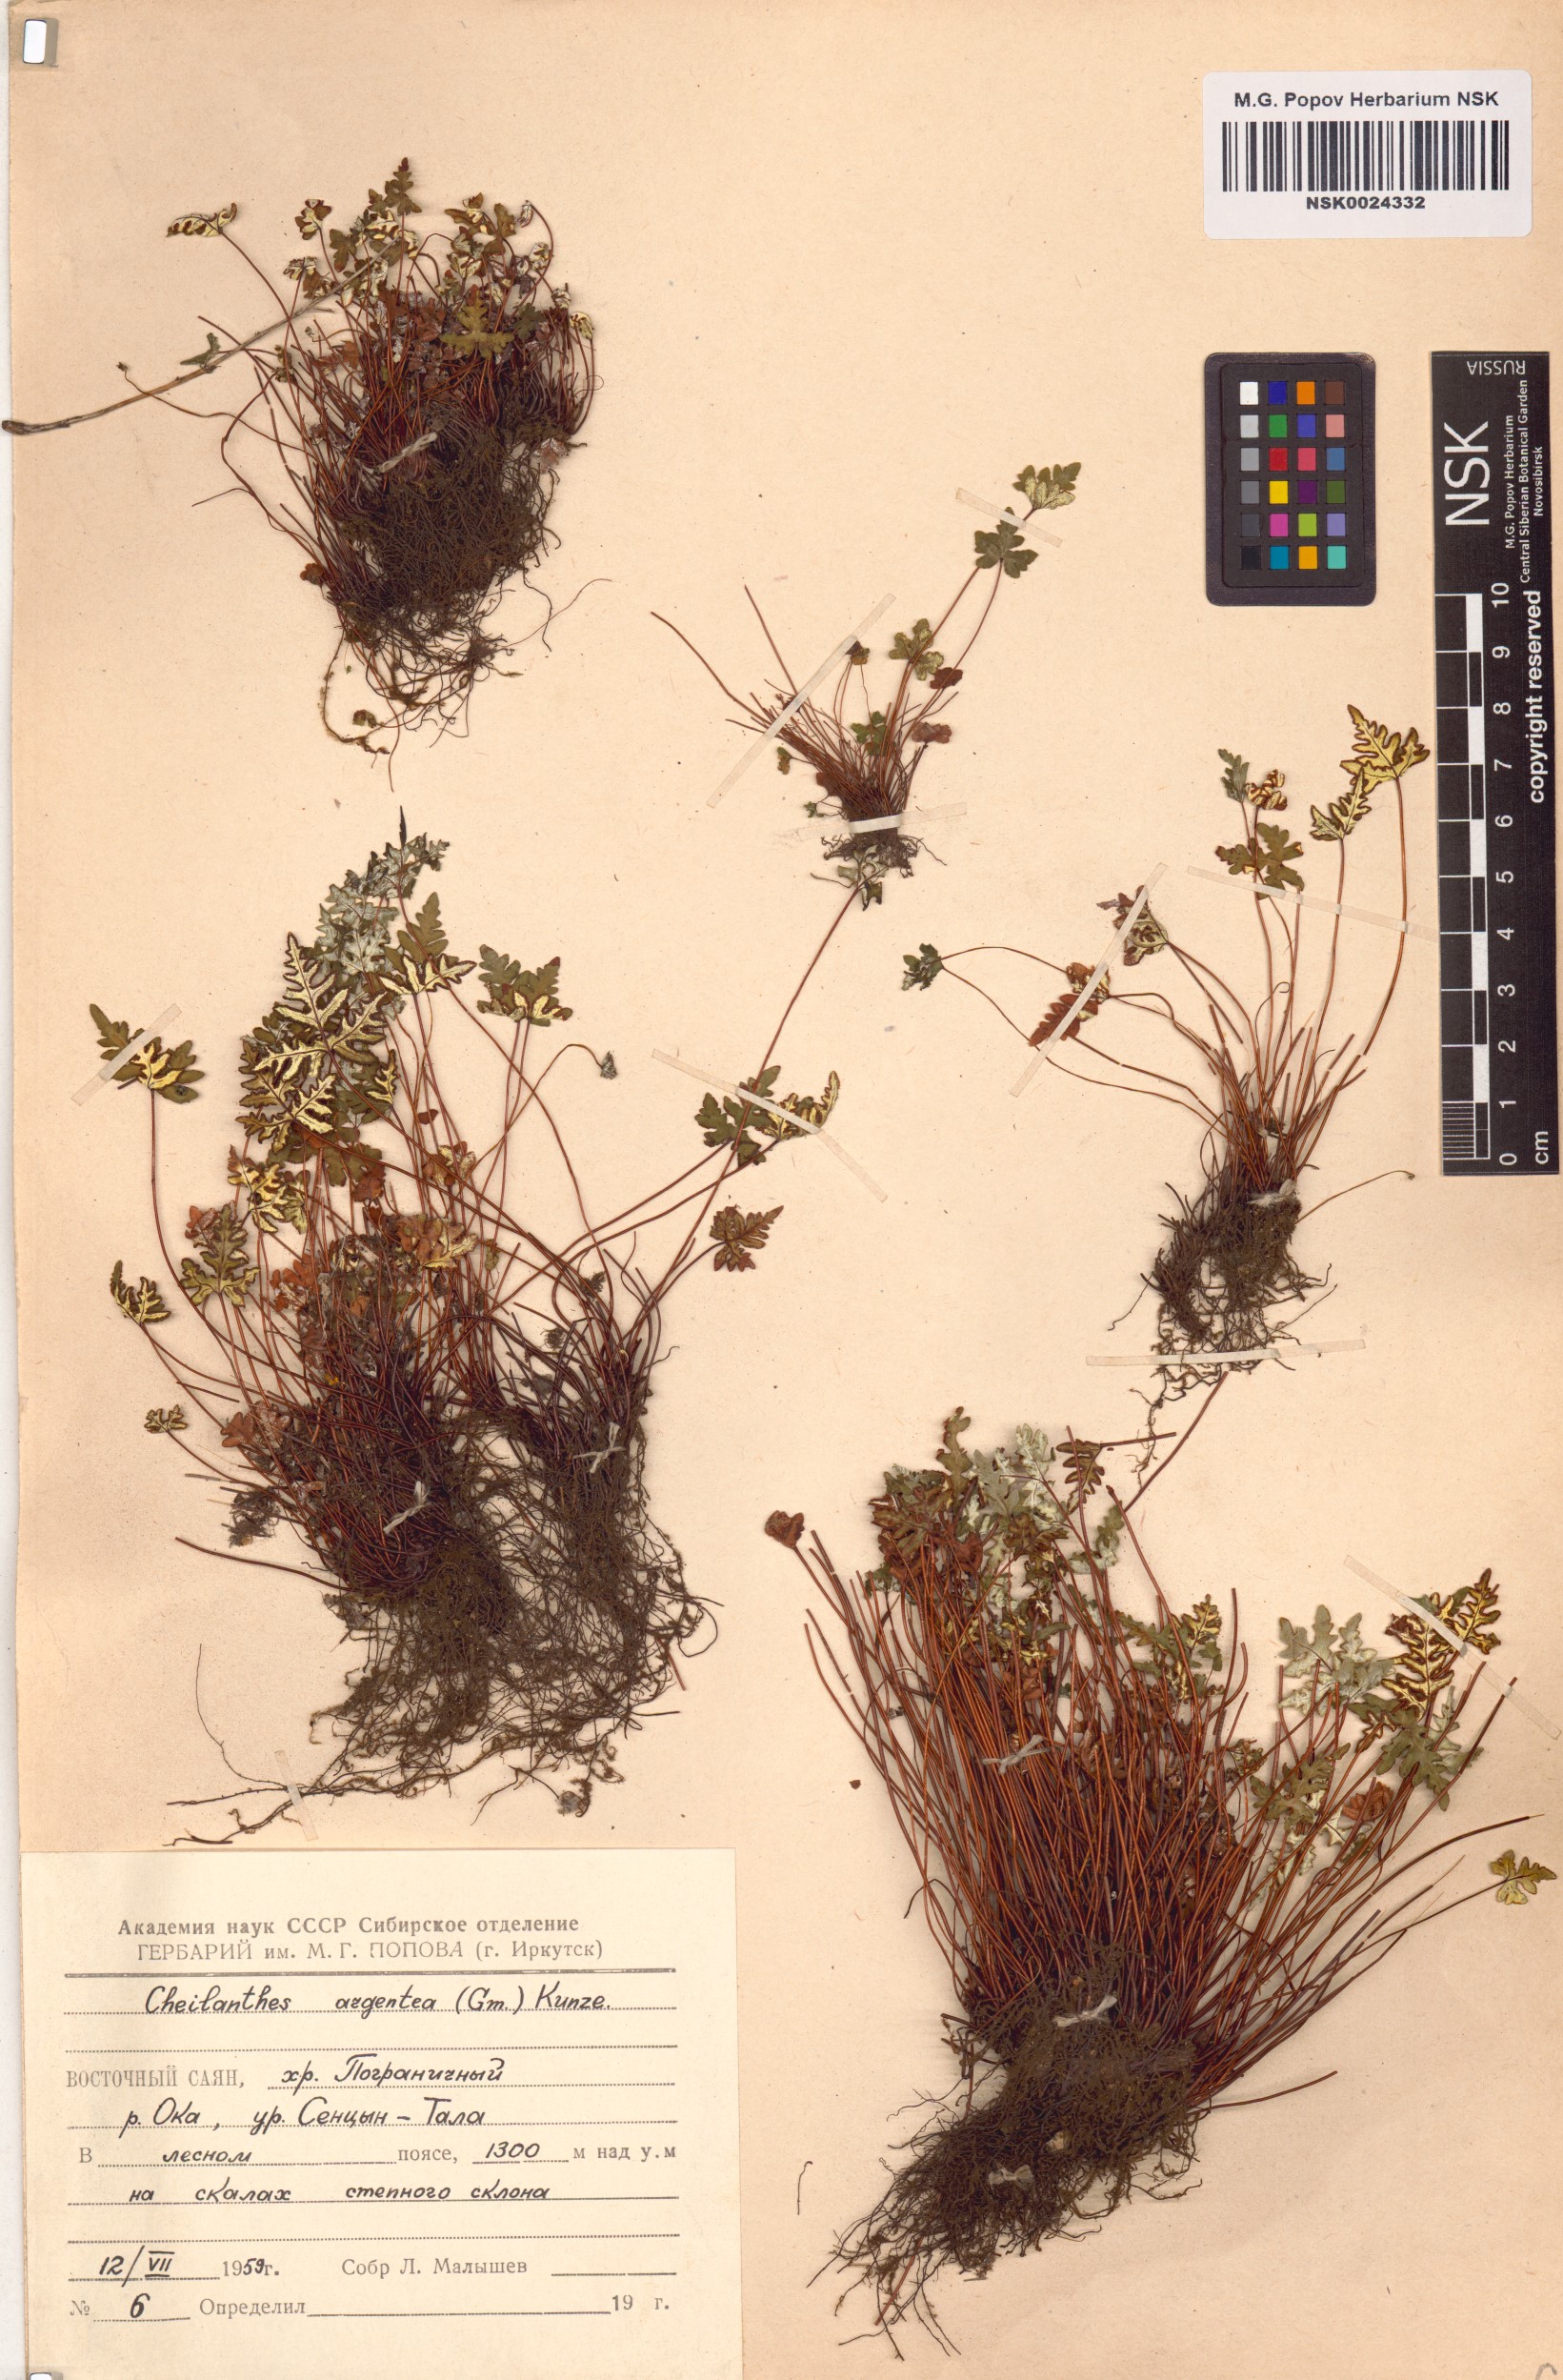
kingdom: Plantae
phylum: Tracheophyta
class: Polypodiopsida
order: Polypodiales
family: Pteridaceae
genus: Aleuritopteris
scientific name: Aleuritopteris argentea
